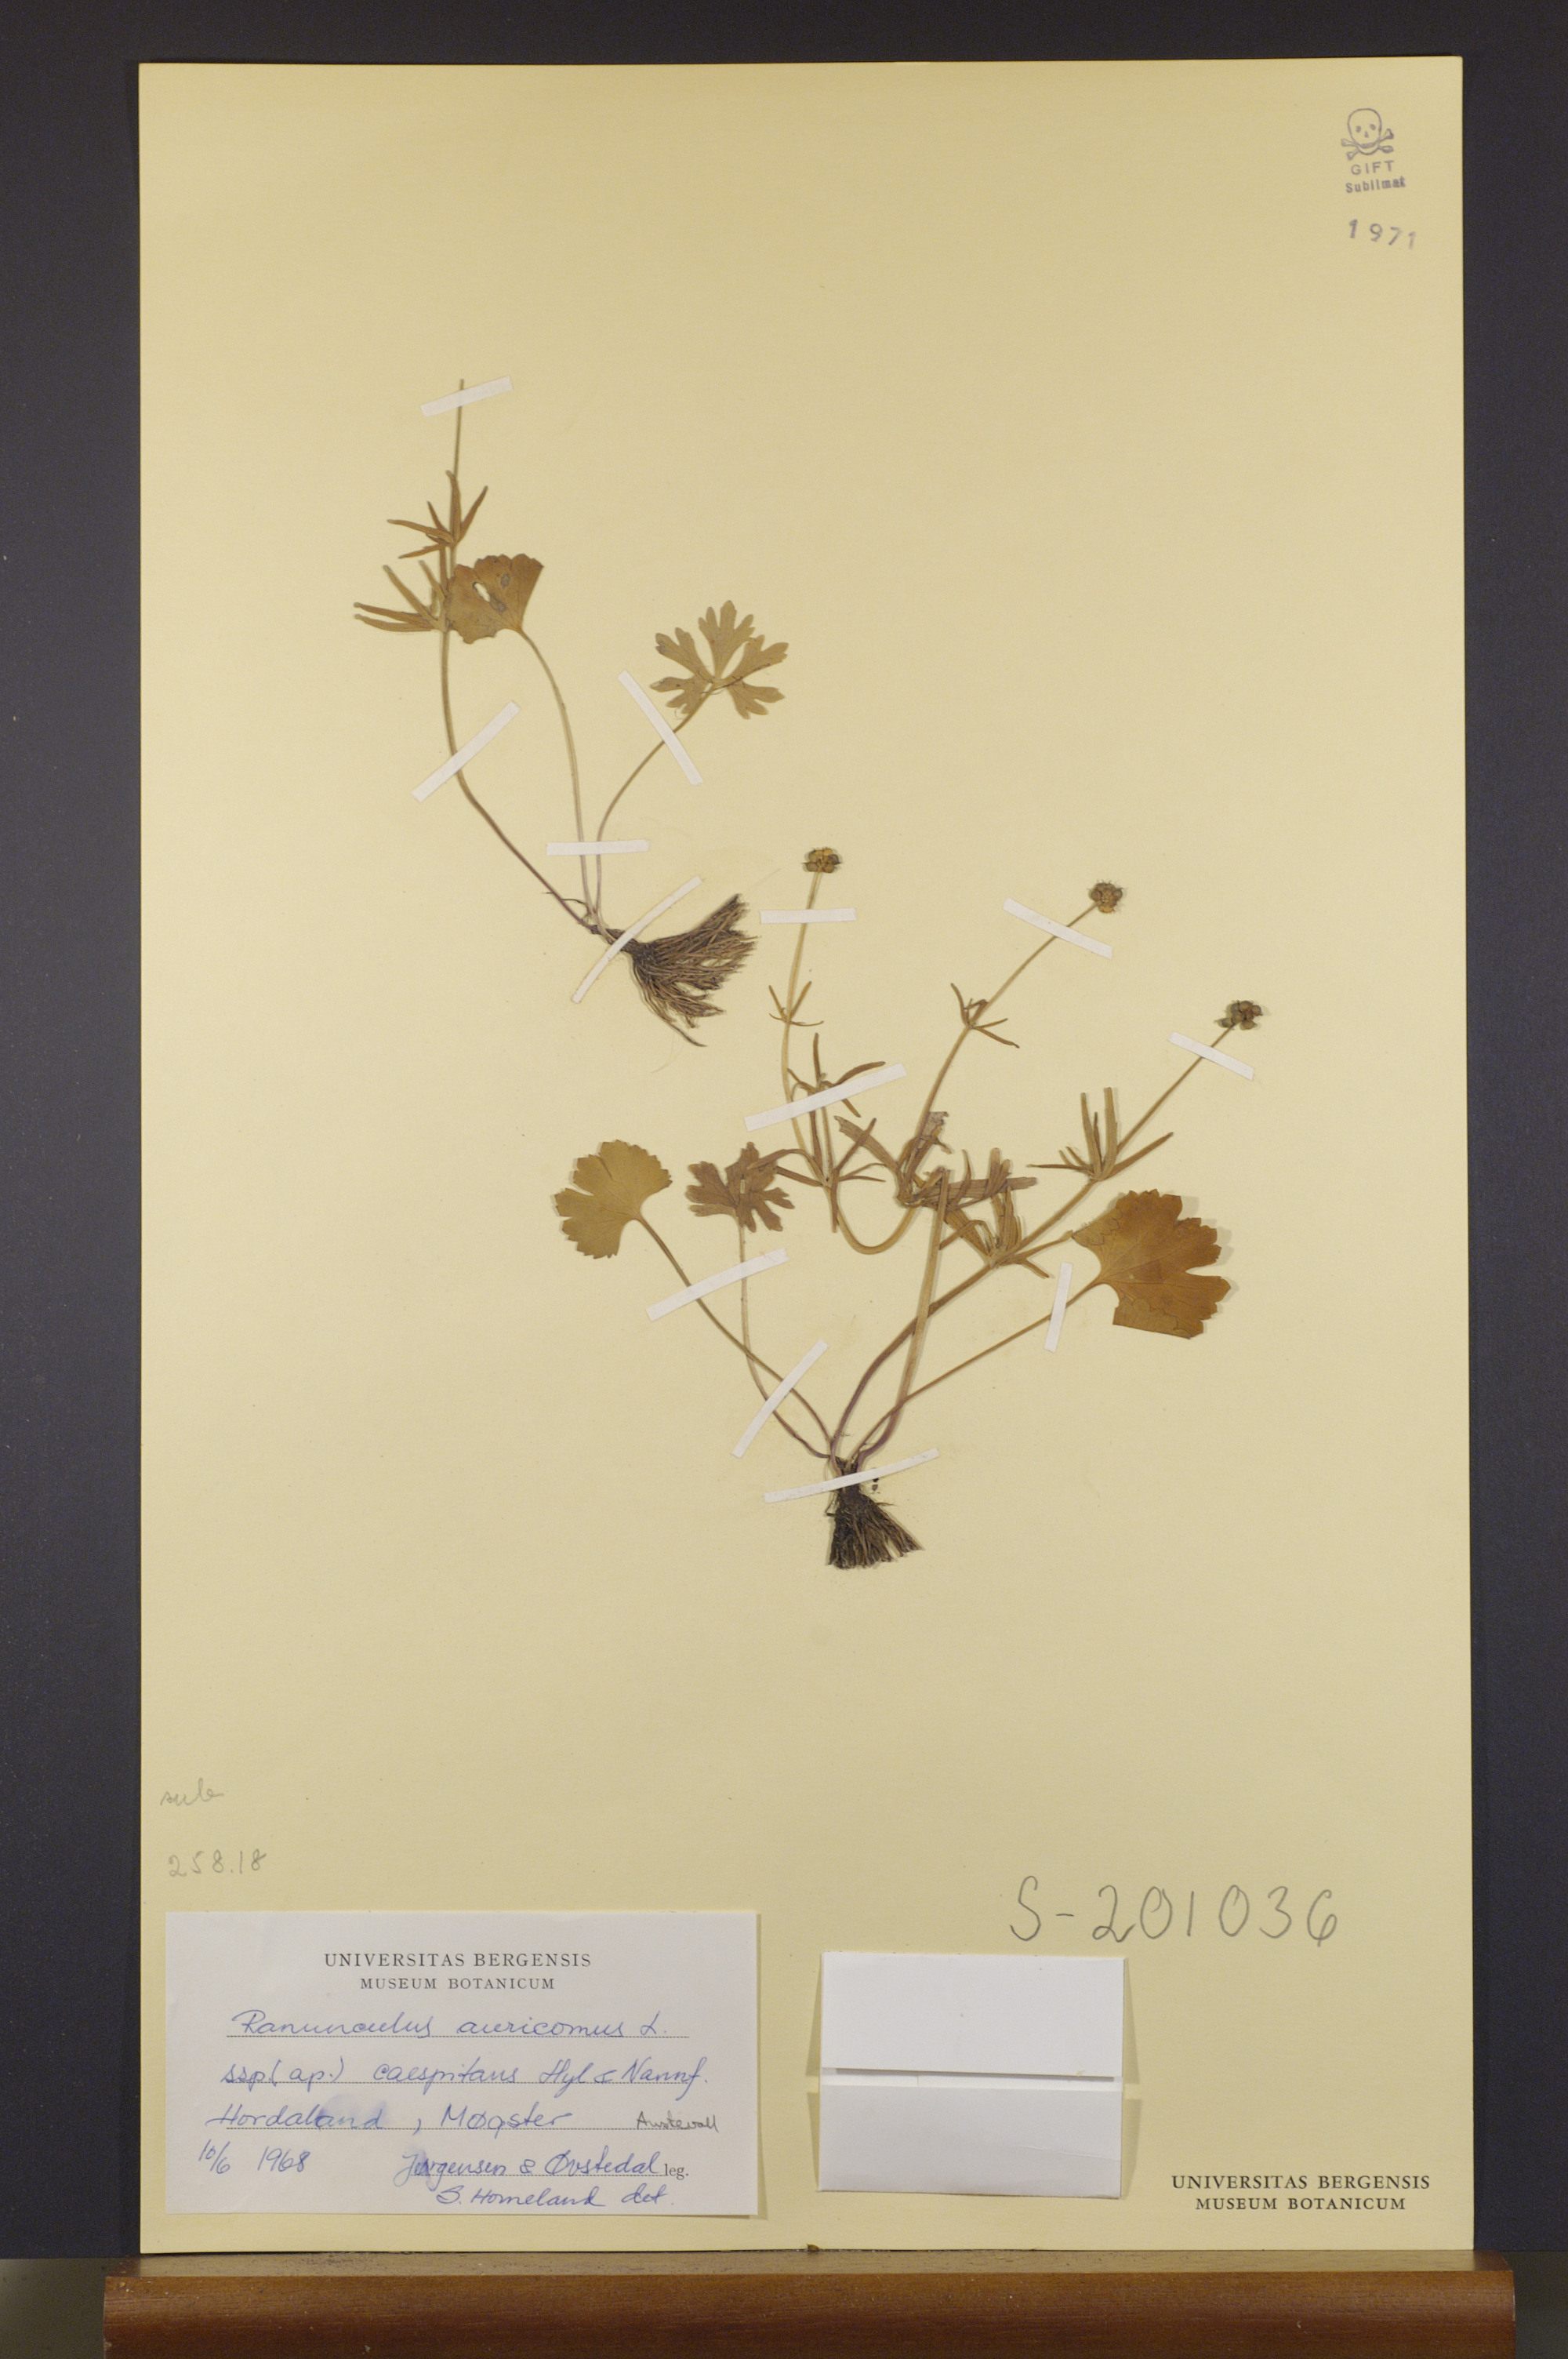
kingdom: Plantae
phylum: Tracheophyta
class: Magnoliopsida
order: Ranunculales
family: Ranunculaceae
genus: Ranunculus
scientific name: Ranunculus caespitans
